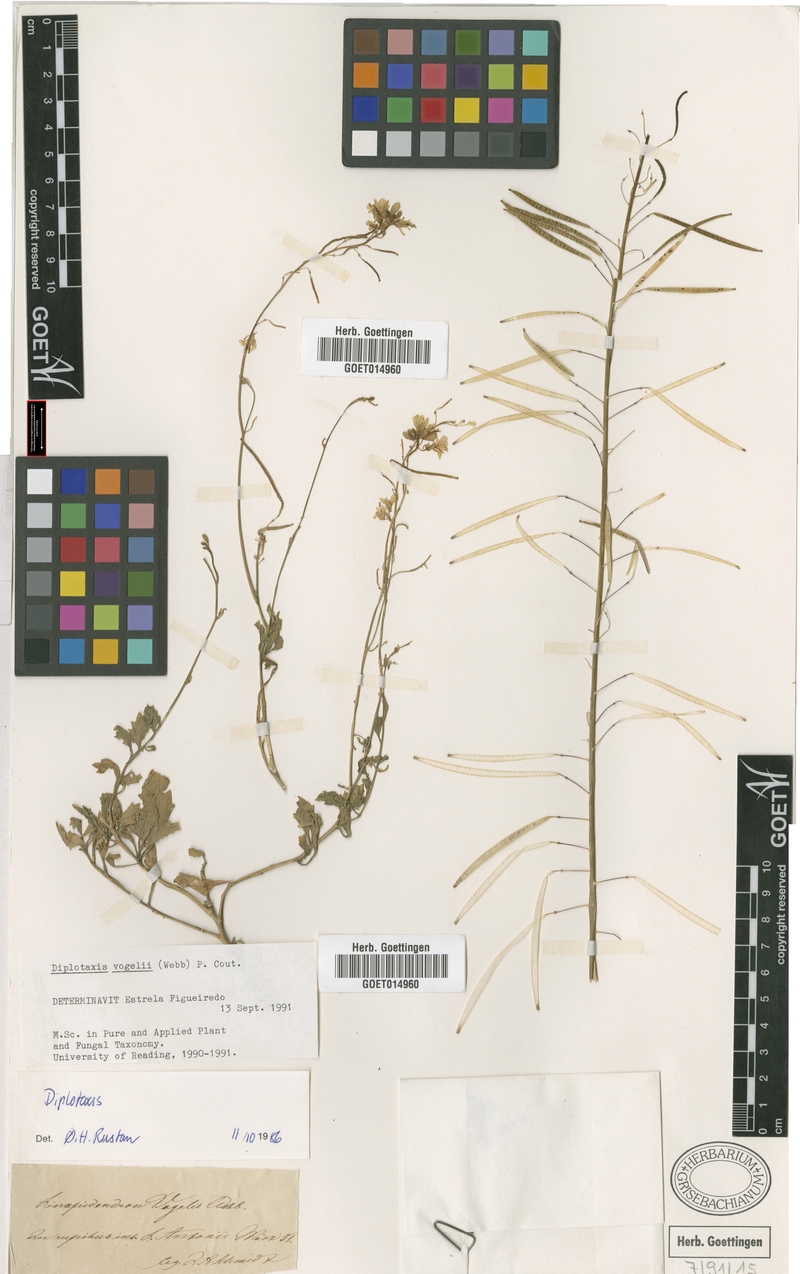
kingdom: Plantae
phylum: Tracheophyta
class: Magnoliopsida
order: Brassicales
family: Brassicaceae
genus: Diplotaxis
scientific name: Diplotaxis vogelii
